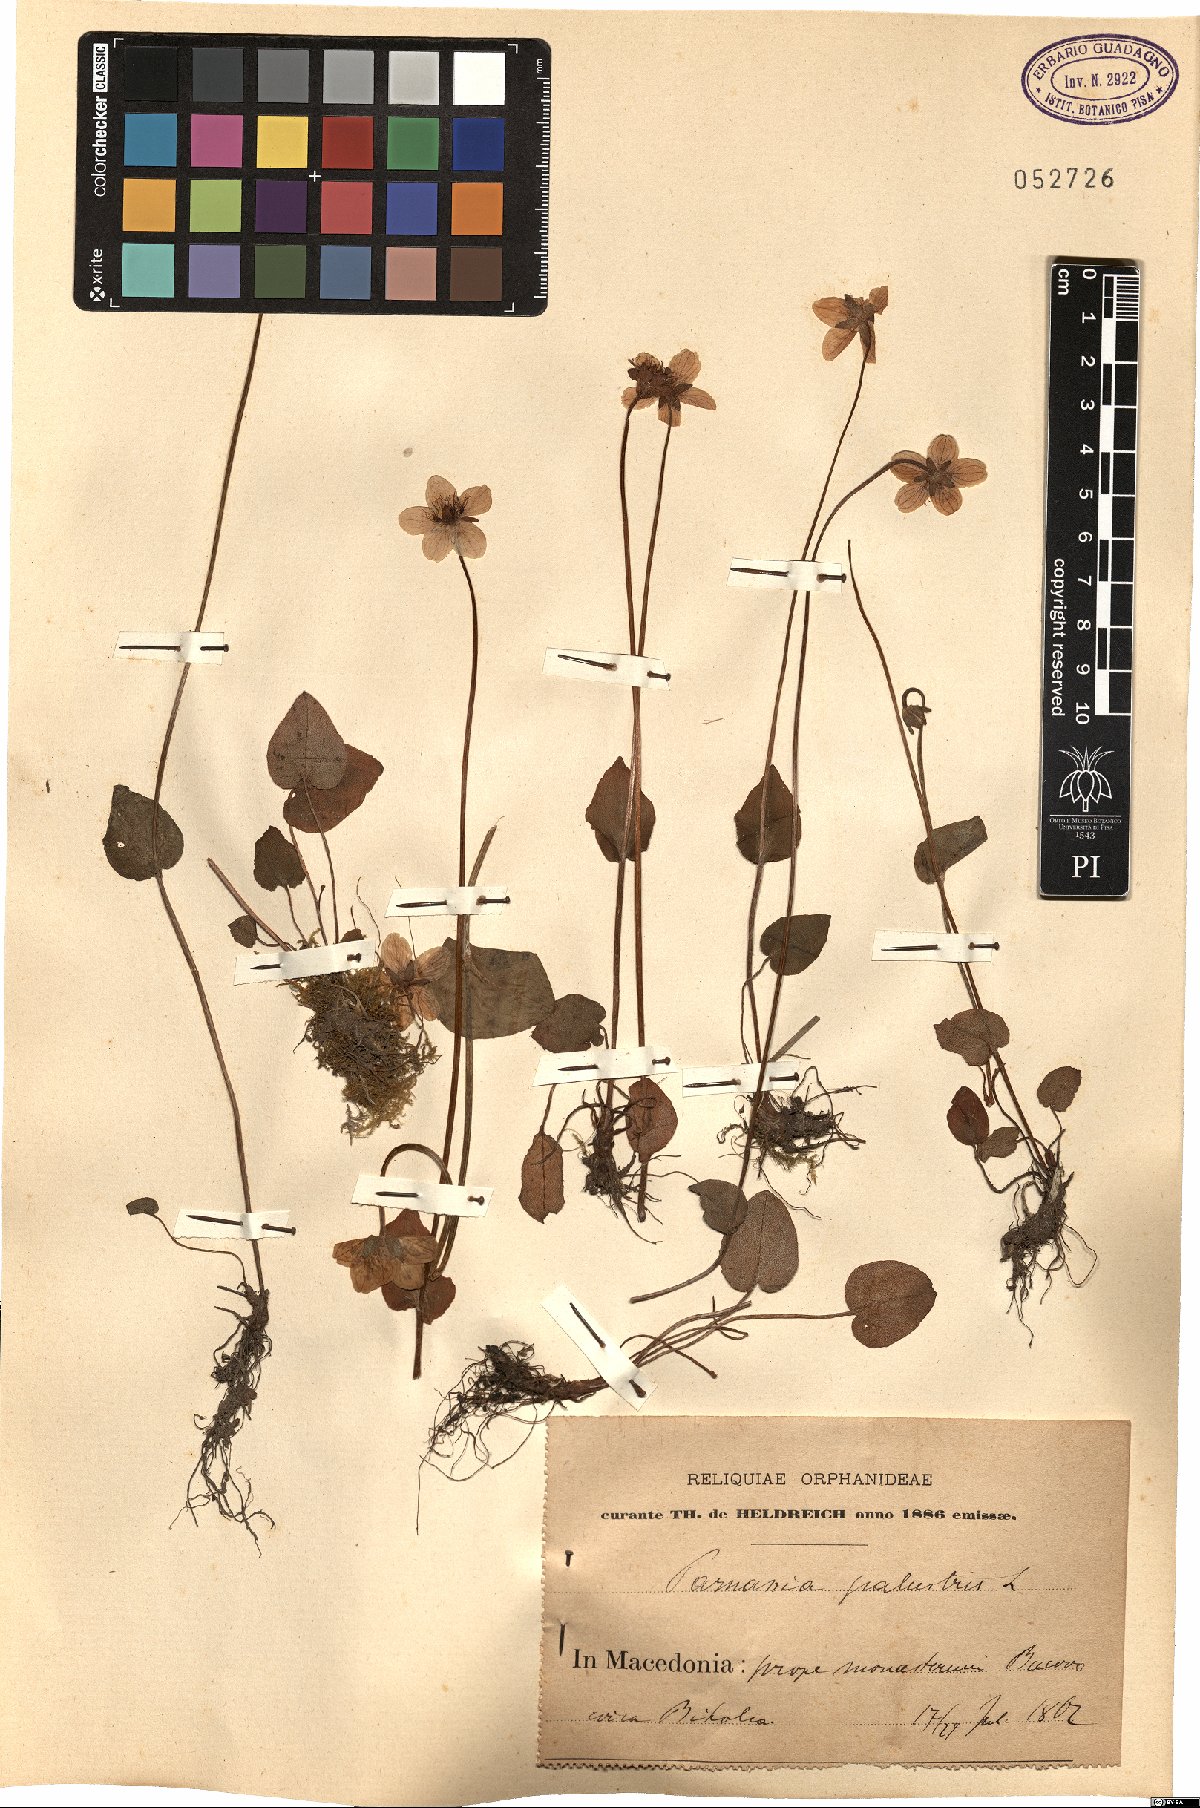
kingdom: Plantae
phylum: Tracheophyta
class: Magnoliopsida
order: Celastrales
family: Parnassiaceae
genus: Parnassia
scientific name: Parnassia palustris
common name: Grass-of-parnassus
